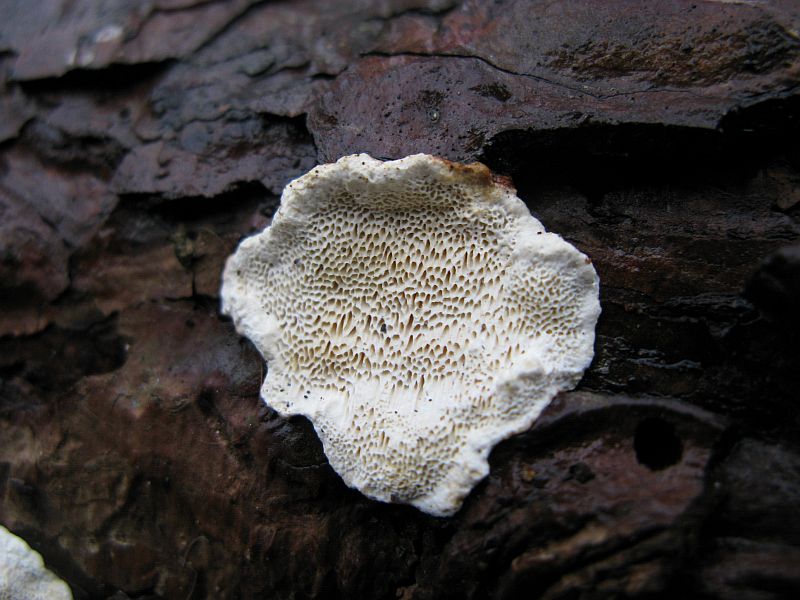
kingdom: Fungi
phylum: Basidiomycota
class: Agaricomycetes
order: Russulales
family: Bondarzewiaceae
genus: Heterobasidion
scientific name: Heterobasidion annosum
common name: almindelig rodfordærver
